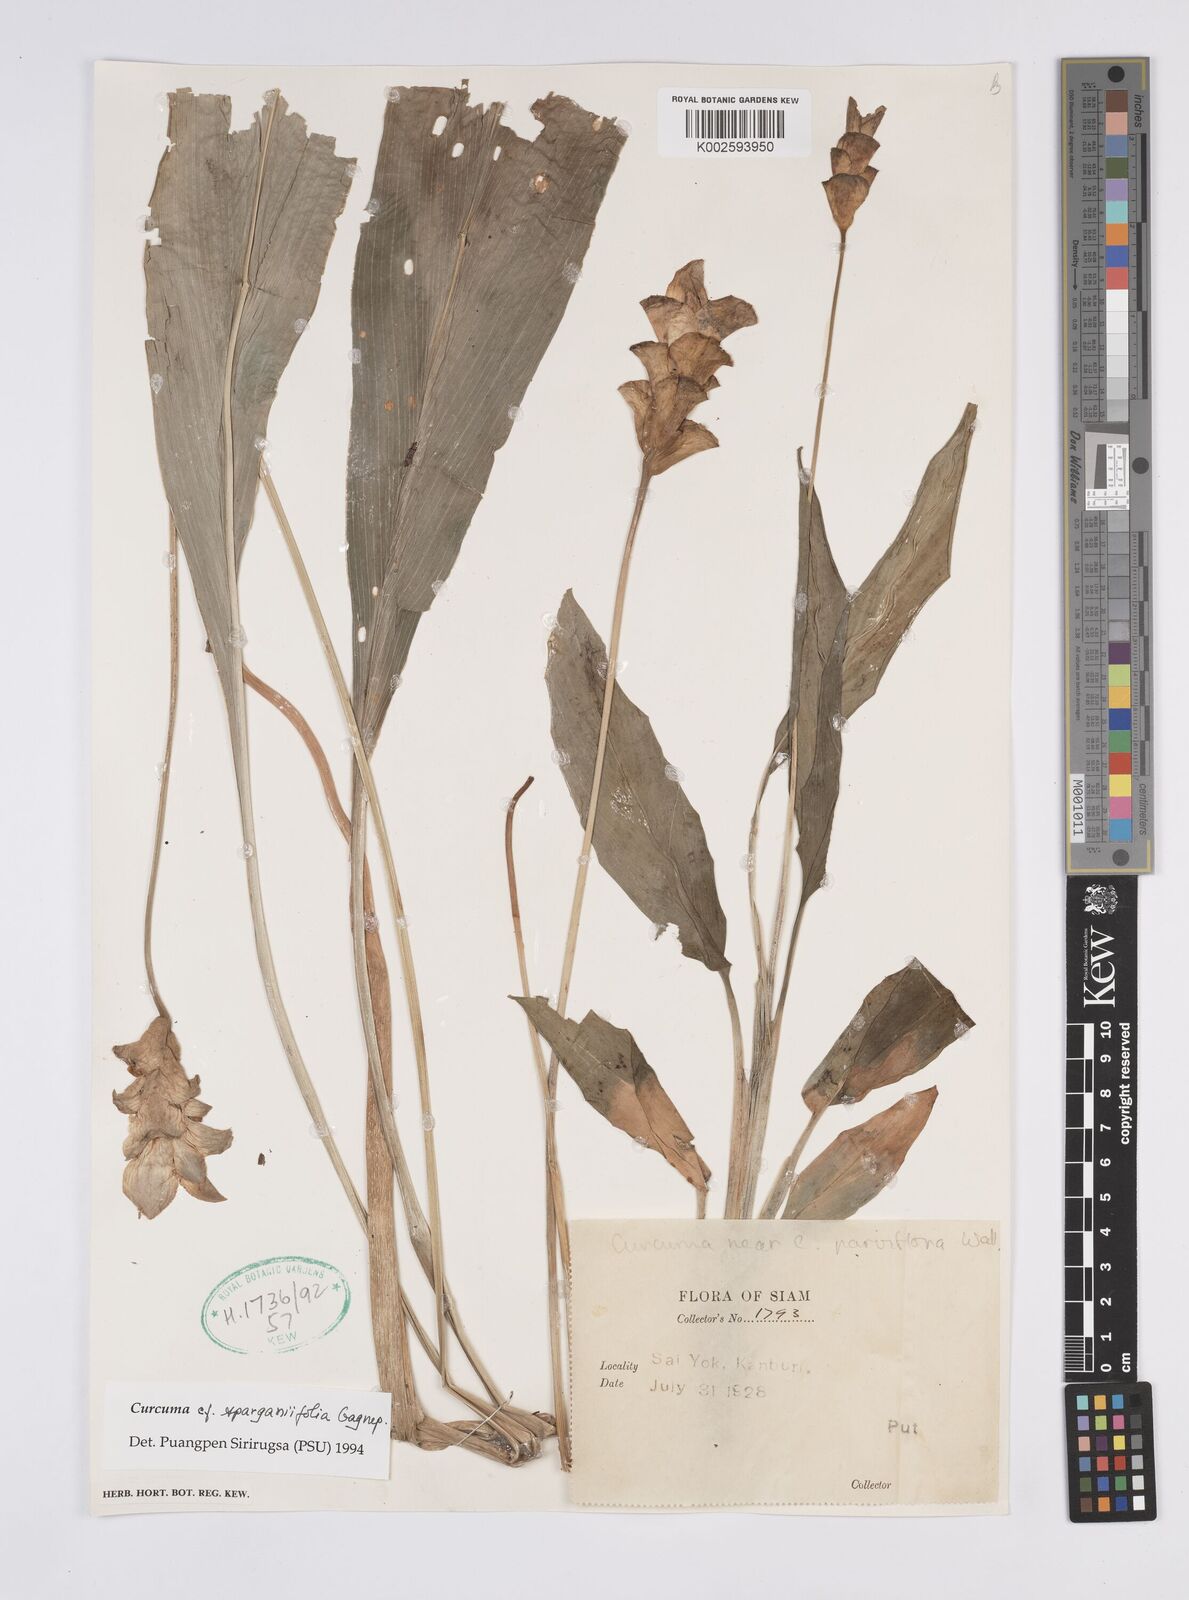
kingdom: Plantae
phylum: Tracheophyta
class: Liliopsida
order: Zingiberales
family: Zingiberaceae
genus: Curcuma
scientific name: Curcuma sparganiifolia
